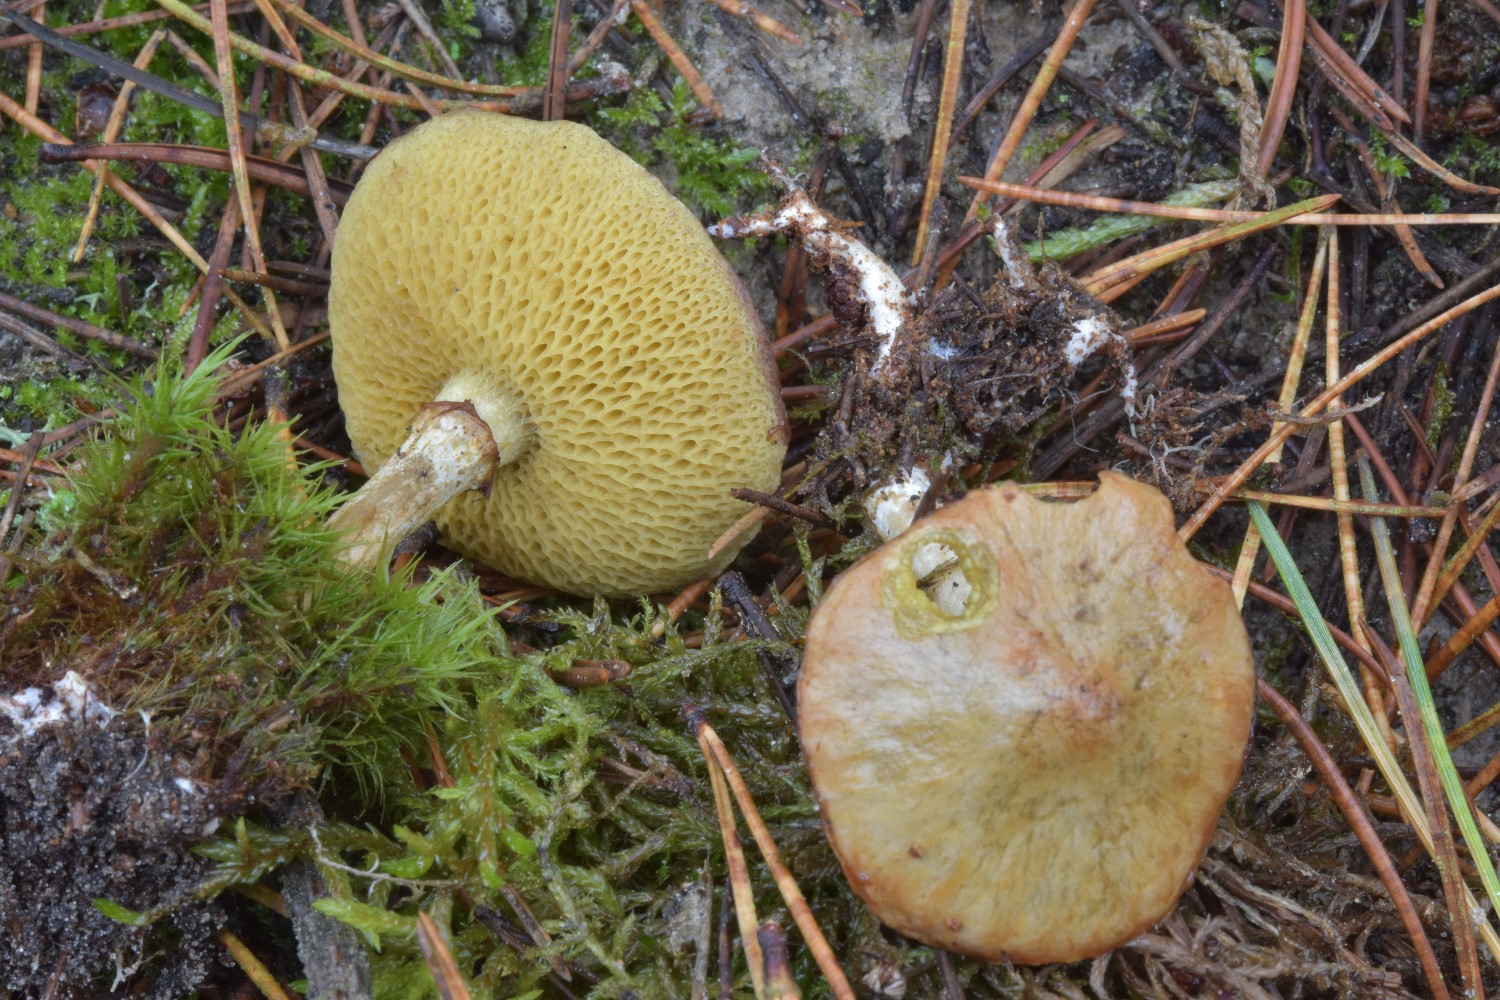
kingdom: Fungi
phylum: Basidiomycota
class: Agaricomycetes
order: Boletales
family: Suillaceae
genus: Suillus
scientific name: Suillus flavidus
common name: mose-slimrørhat
